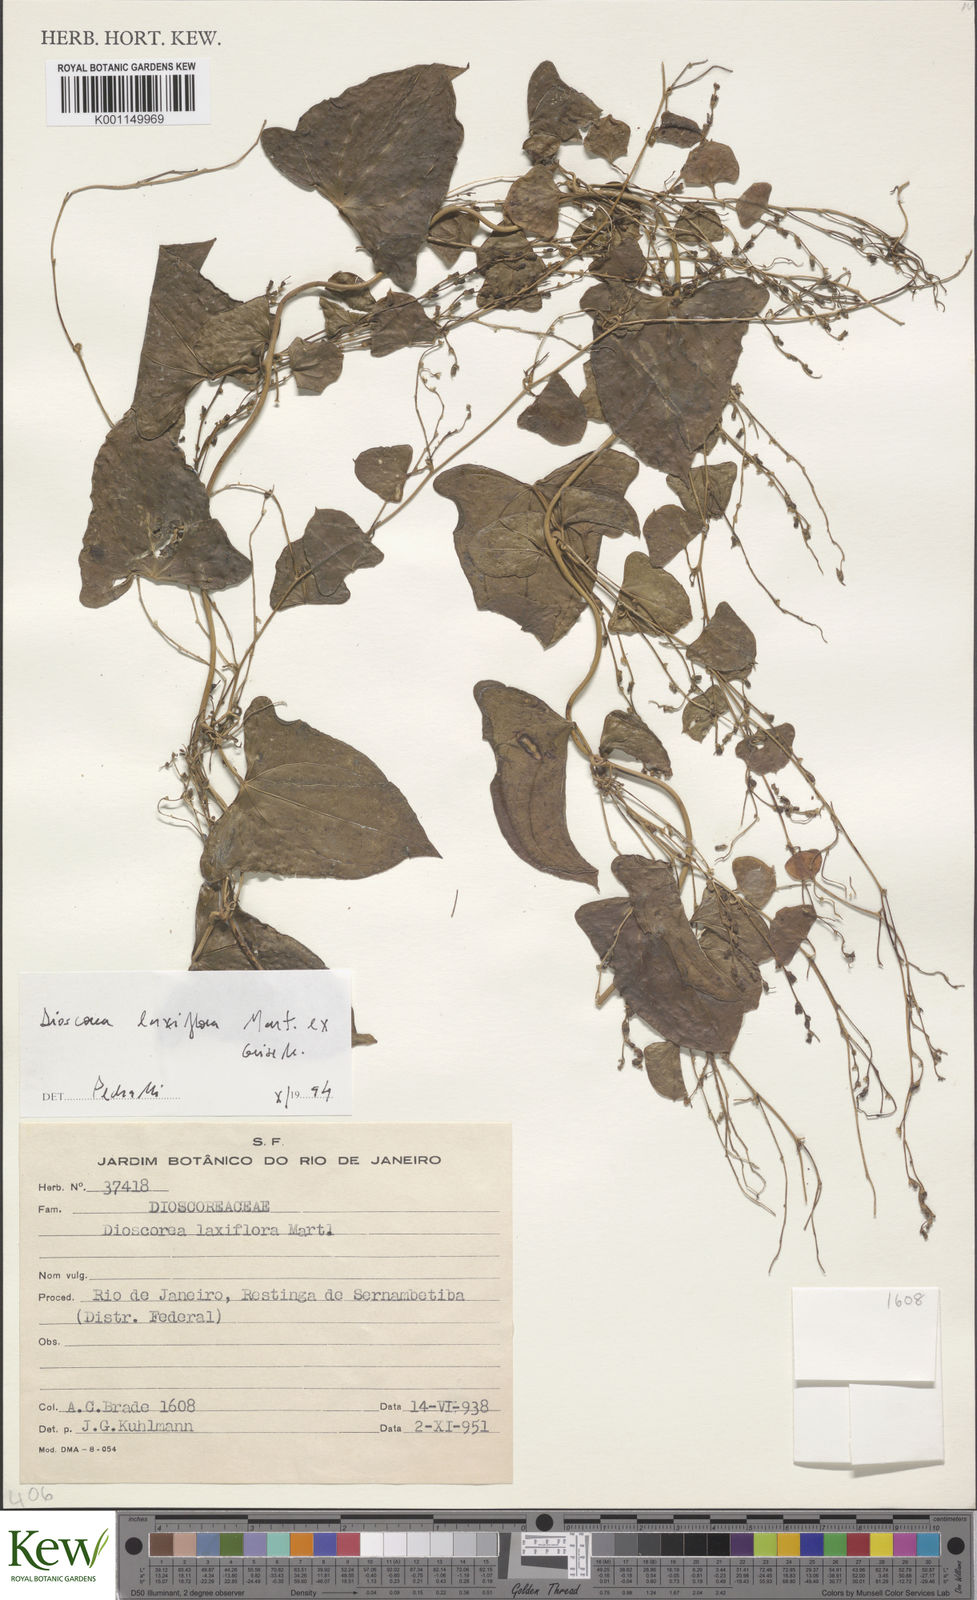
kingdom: Plantae
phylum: Tracheophyta
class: Liliopsida
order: Dioscoreales
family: Dioscoreaceae
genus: Dioscorea
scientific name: Dioscorea laxiflora
